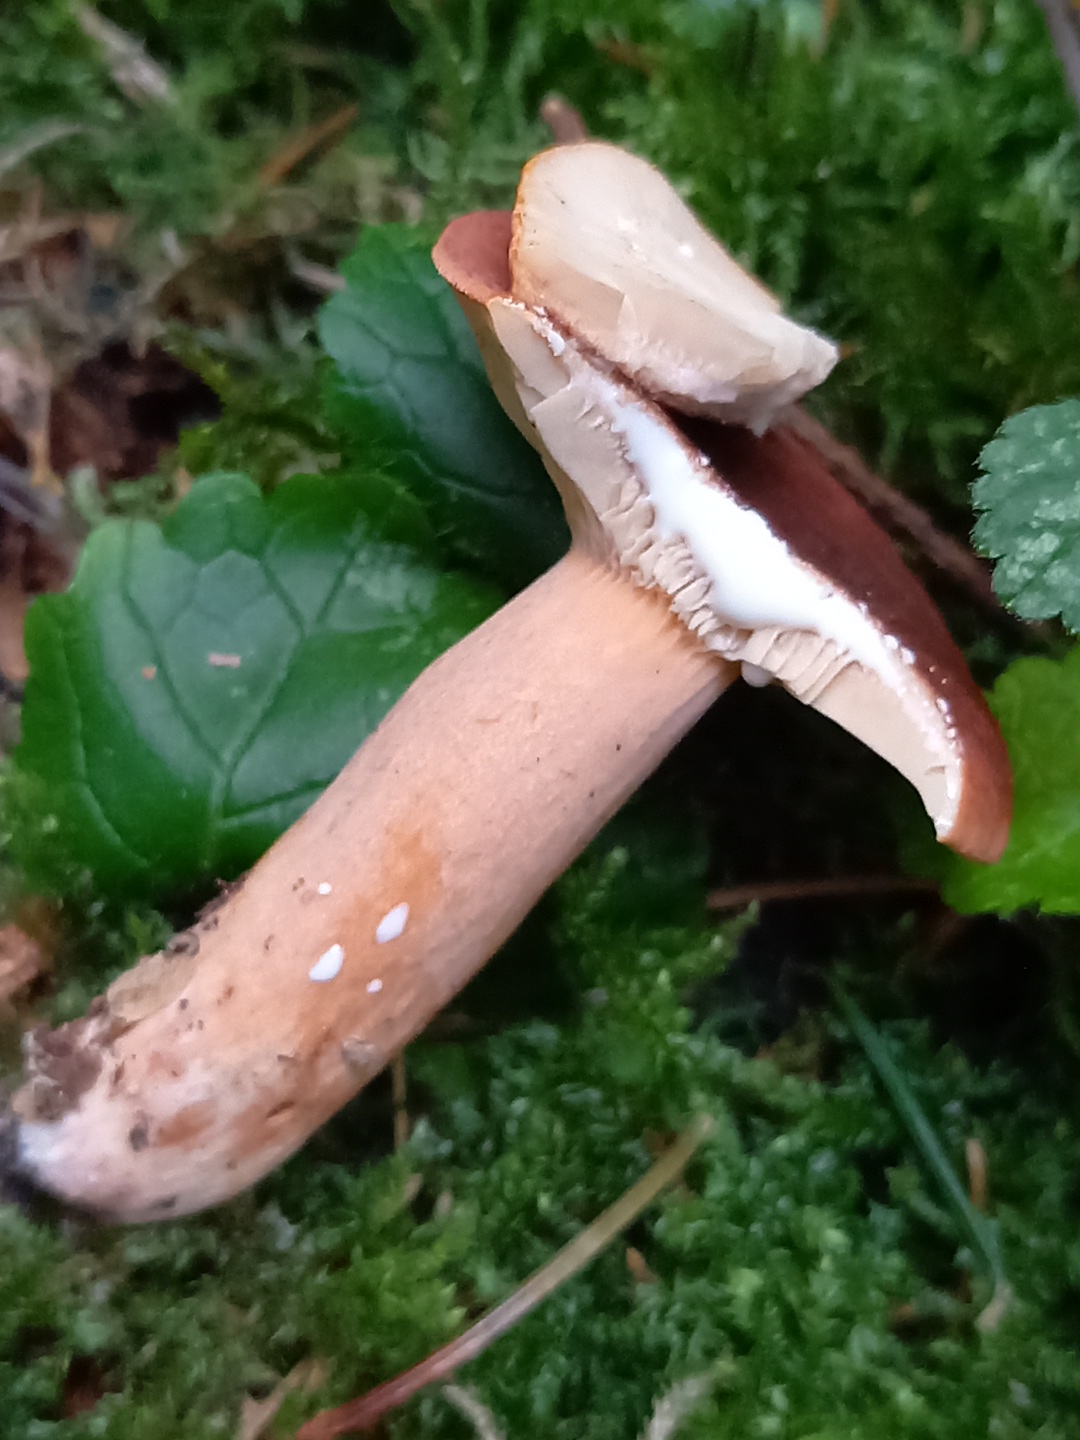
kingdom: Fungi
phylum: Basidiomycota
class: Agaricomycetes
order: Russulales
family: Russulaceae
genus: Lactarius
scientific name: Lactarius aurantiacus
